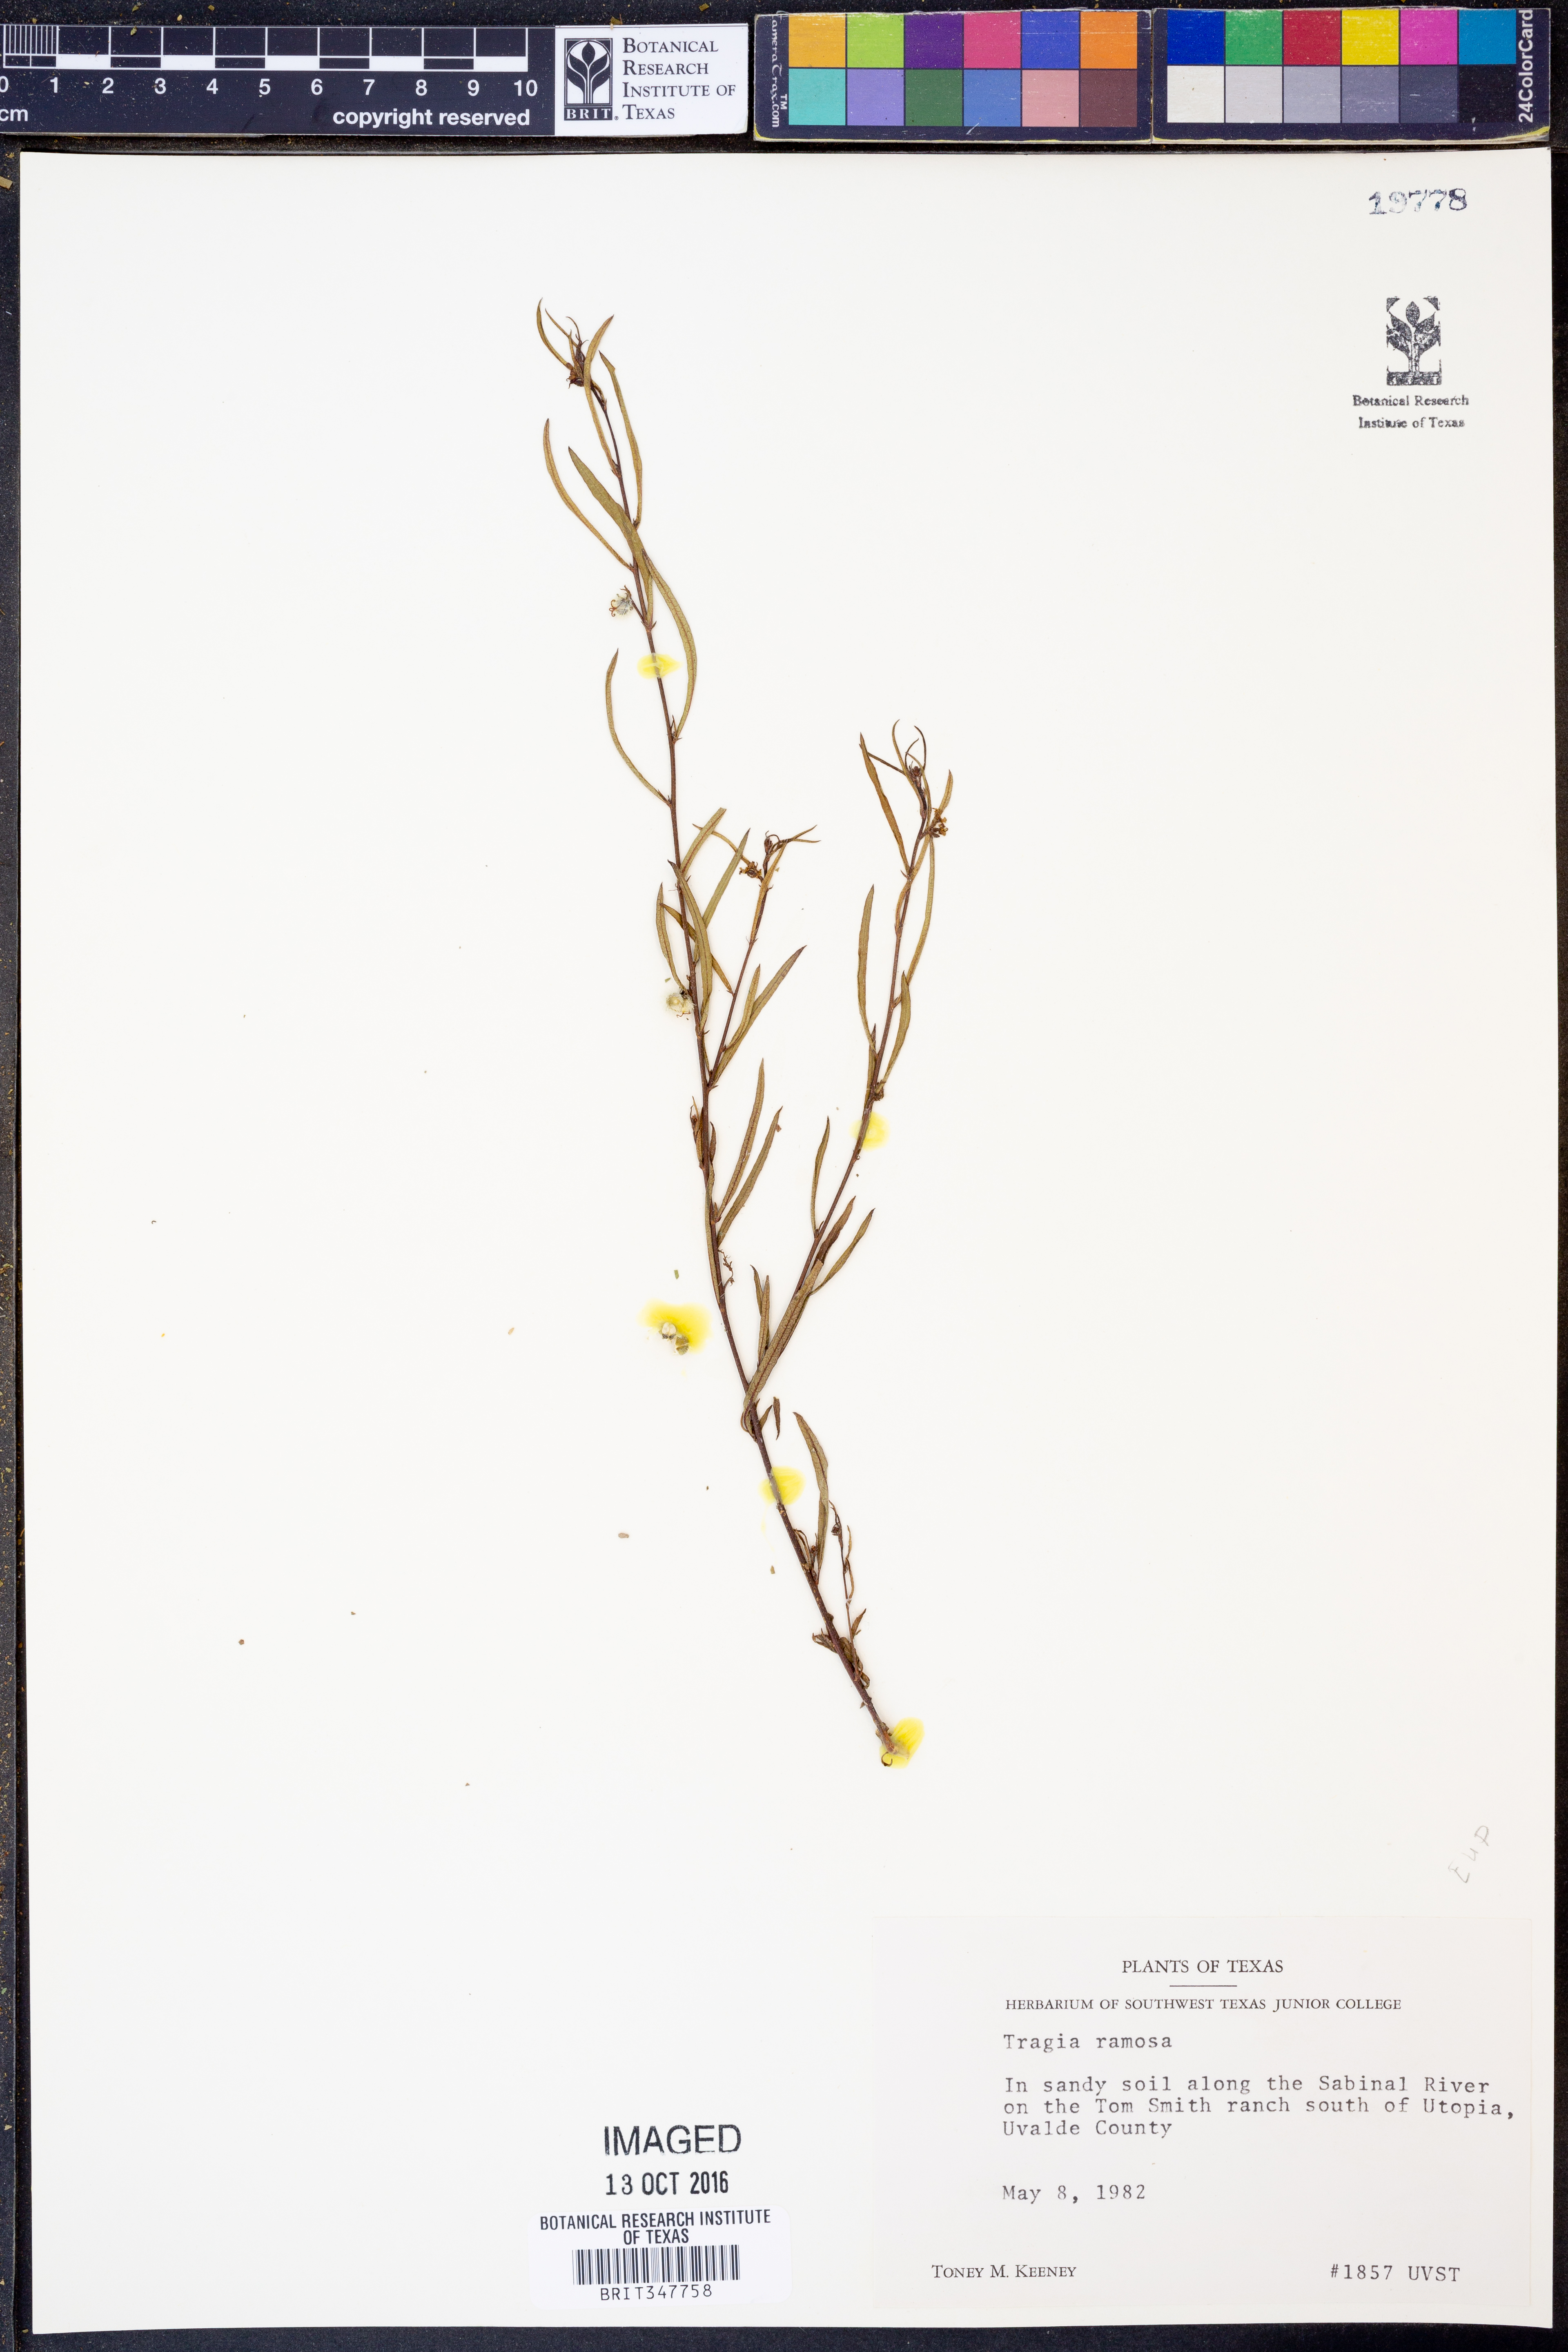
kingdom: Plantae
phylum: Tracheophyta
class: Magnoliopsida
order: Malpighiales
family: Euphorbiaceae
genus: Tragia
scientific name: Tragia ramosa
